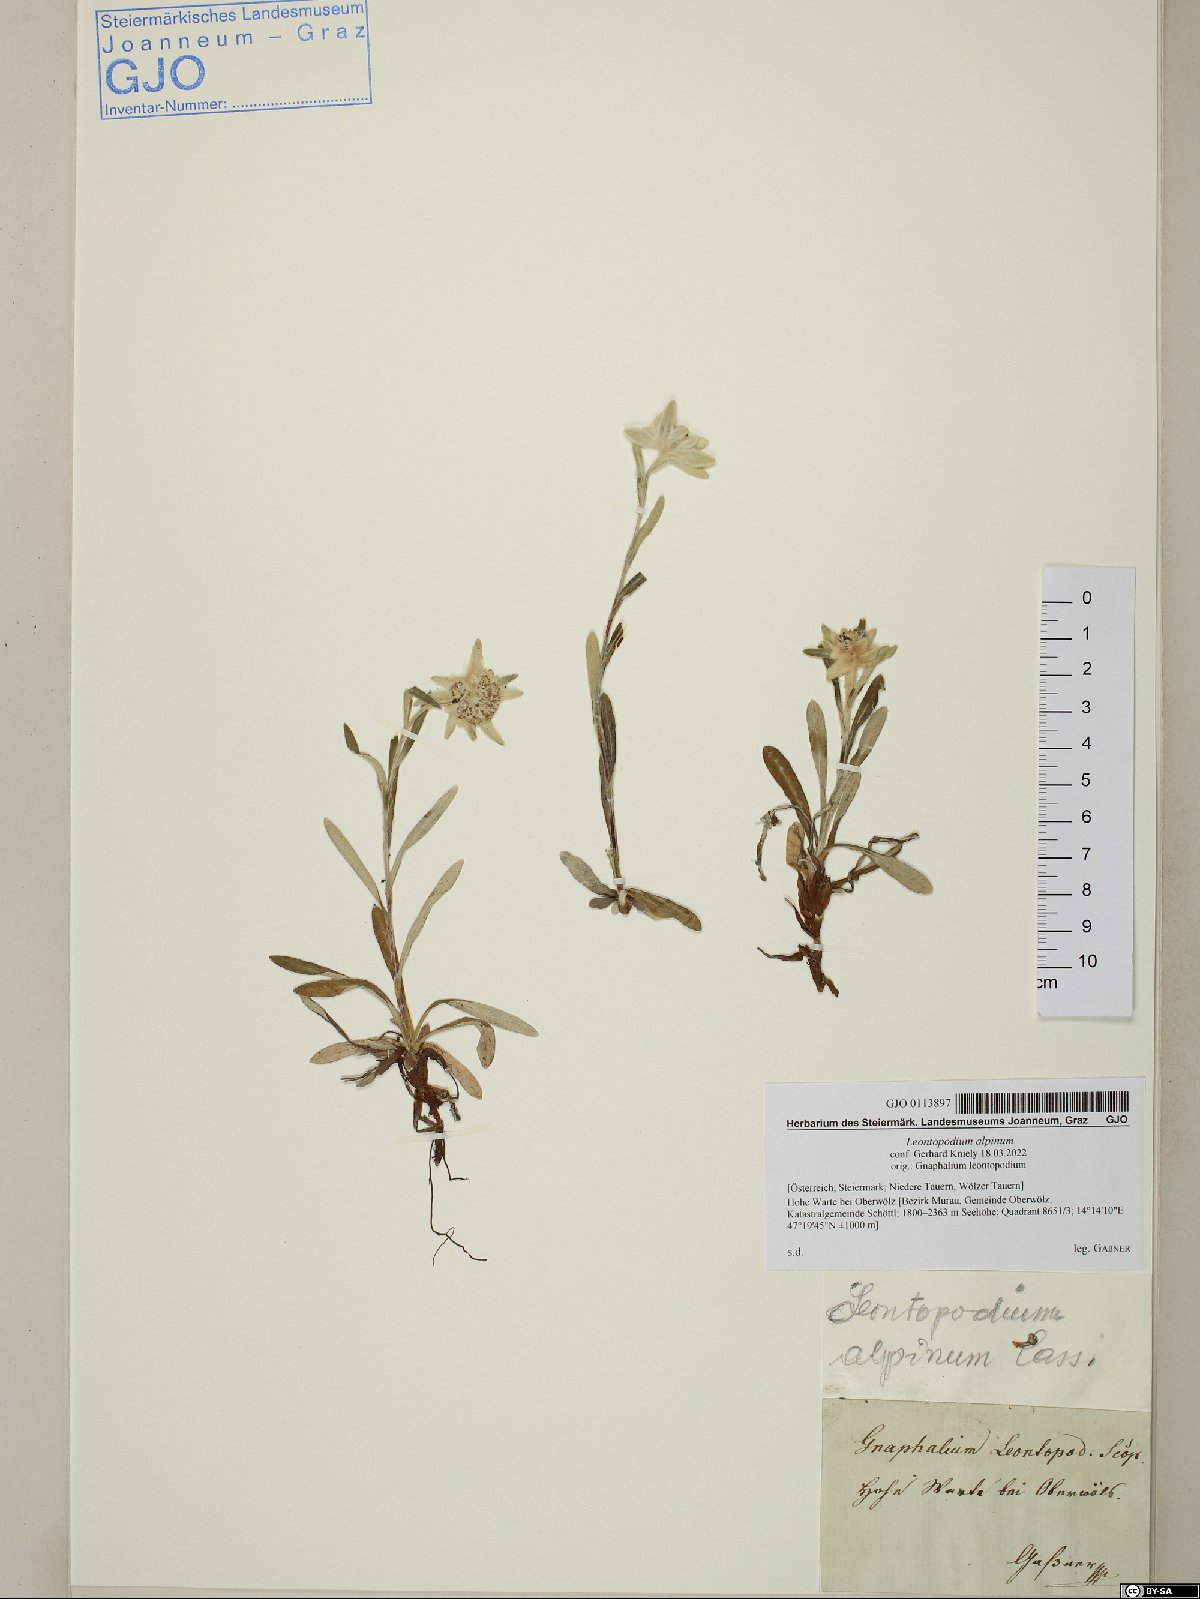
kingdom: Plantae
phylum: Tracheophyta
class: Magnoliopsida
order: Asterales
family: Asteraceae
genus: Leontopodium
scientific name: Leontopodium nivale
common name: Edelweiss
